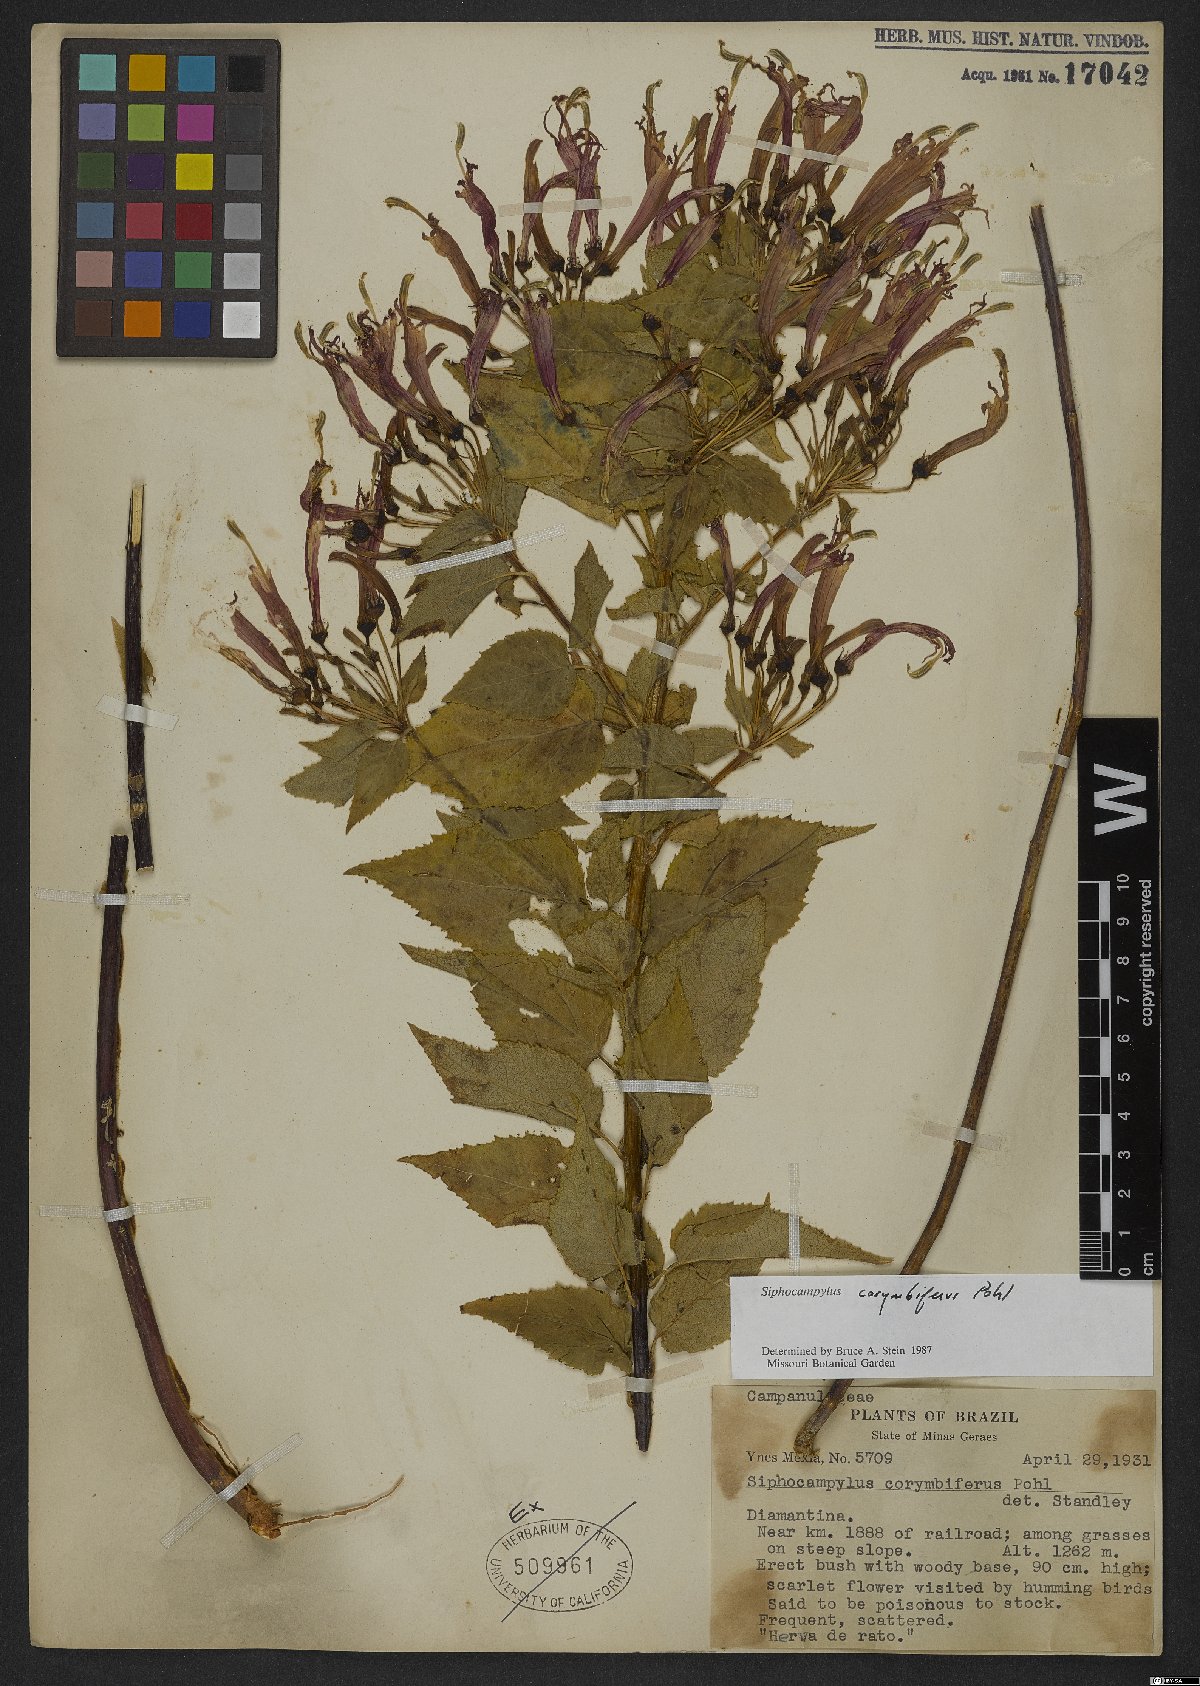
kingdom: Plantae
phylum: Tracheophyta
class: Magnoliopsida
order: Asterales
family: Campanulaceae
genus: Siphocampylus
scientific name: Siphocampylus corymbiferus
